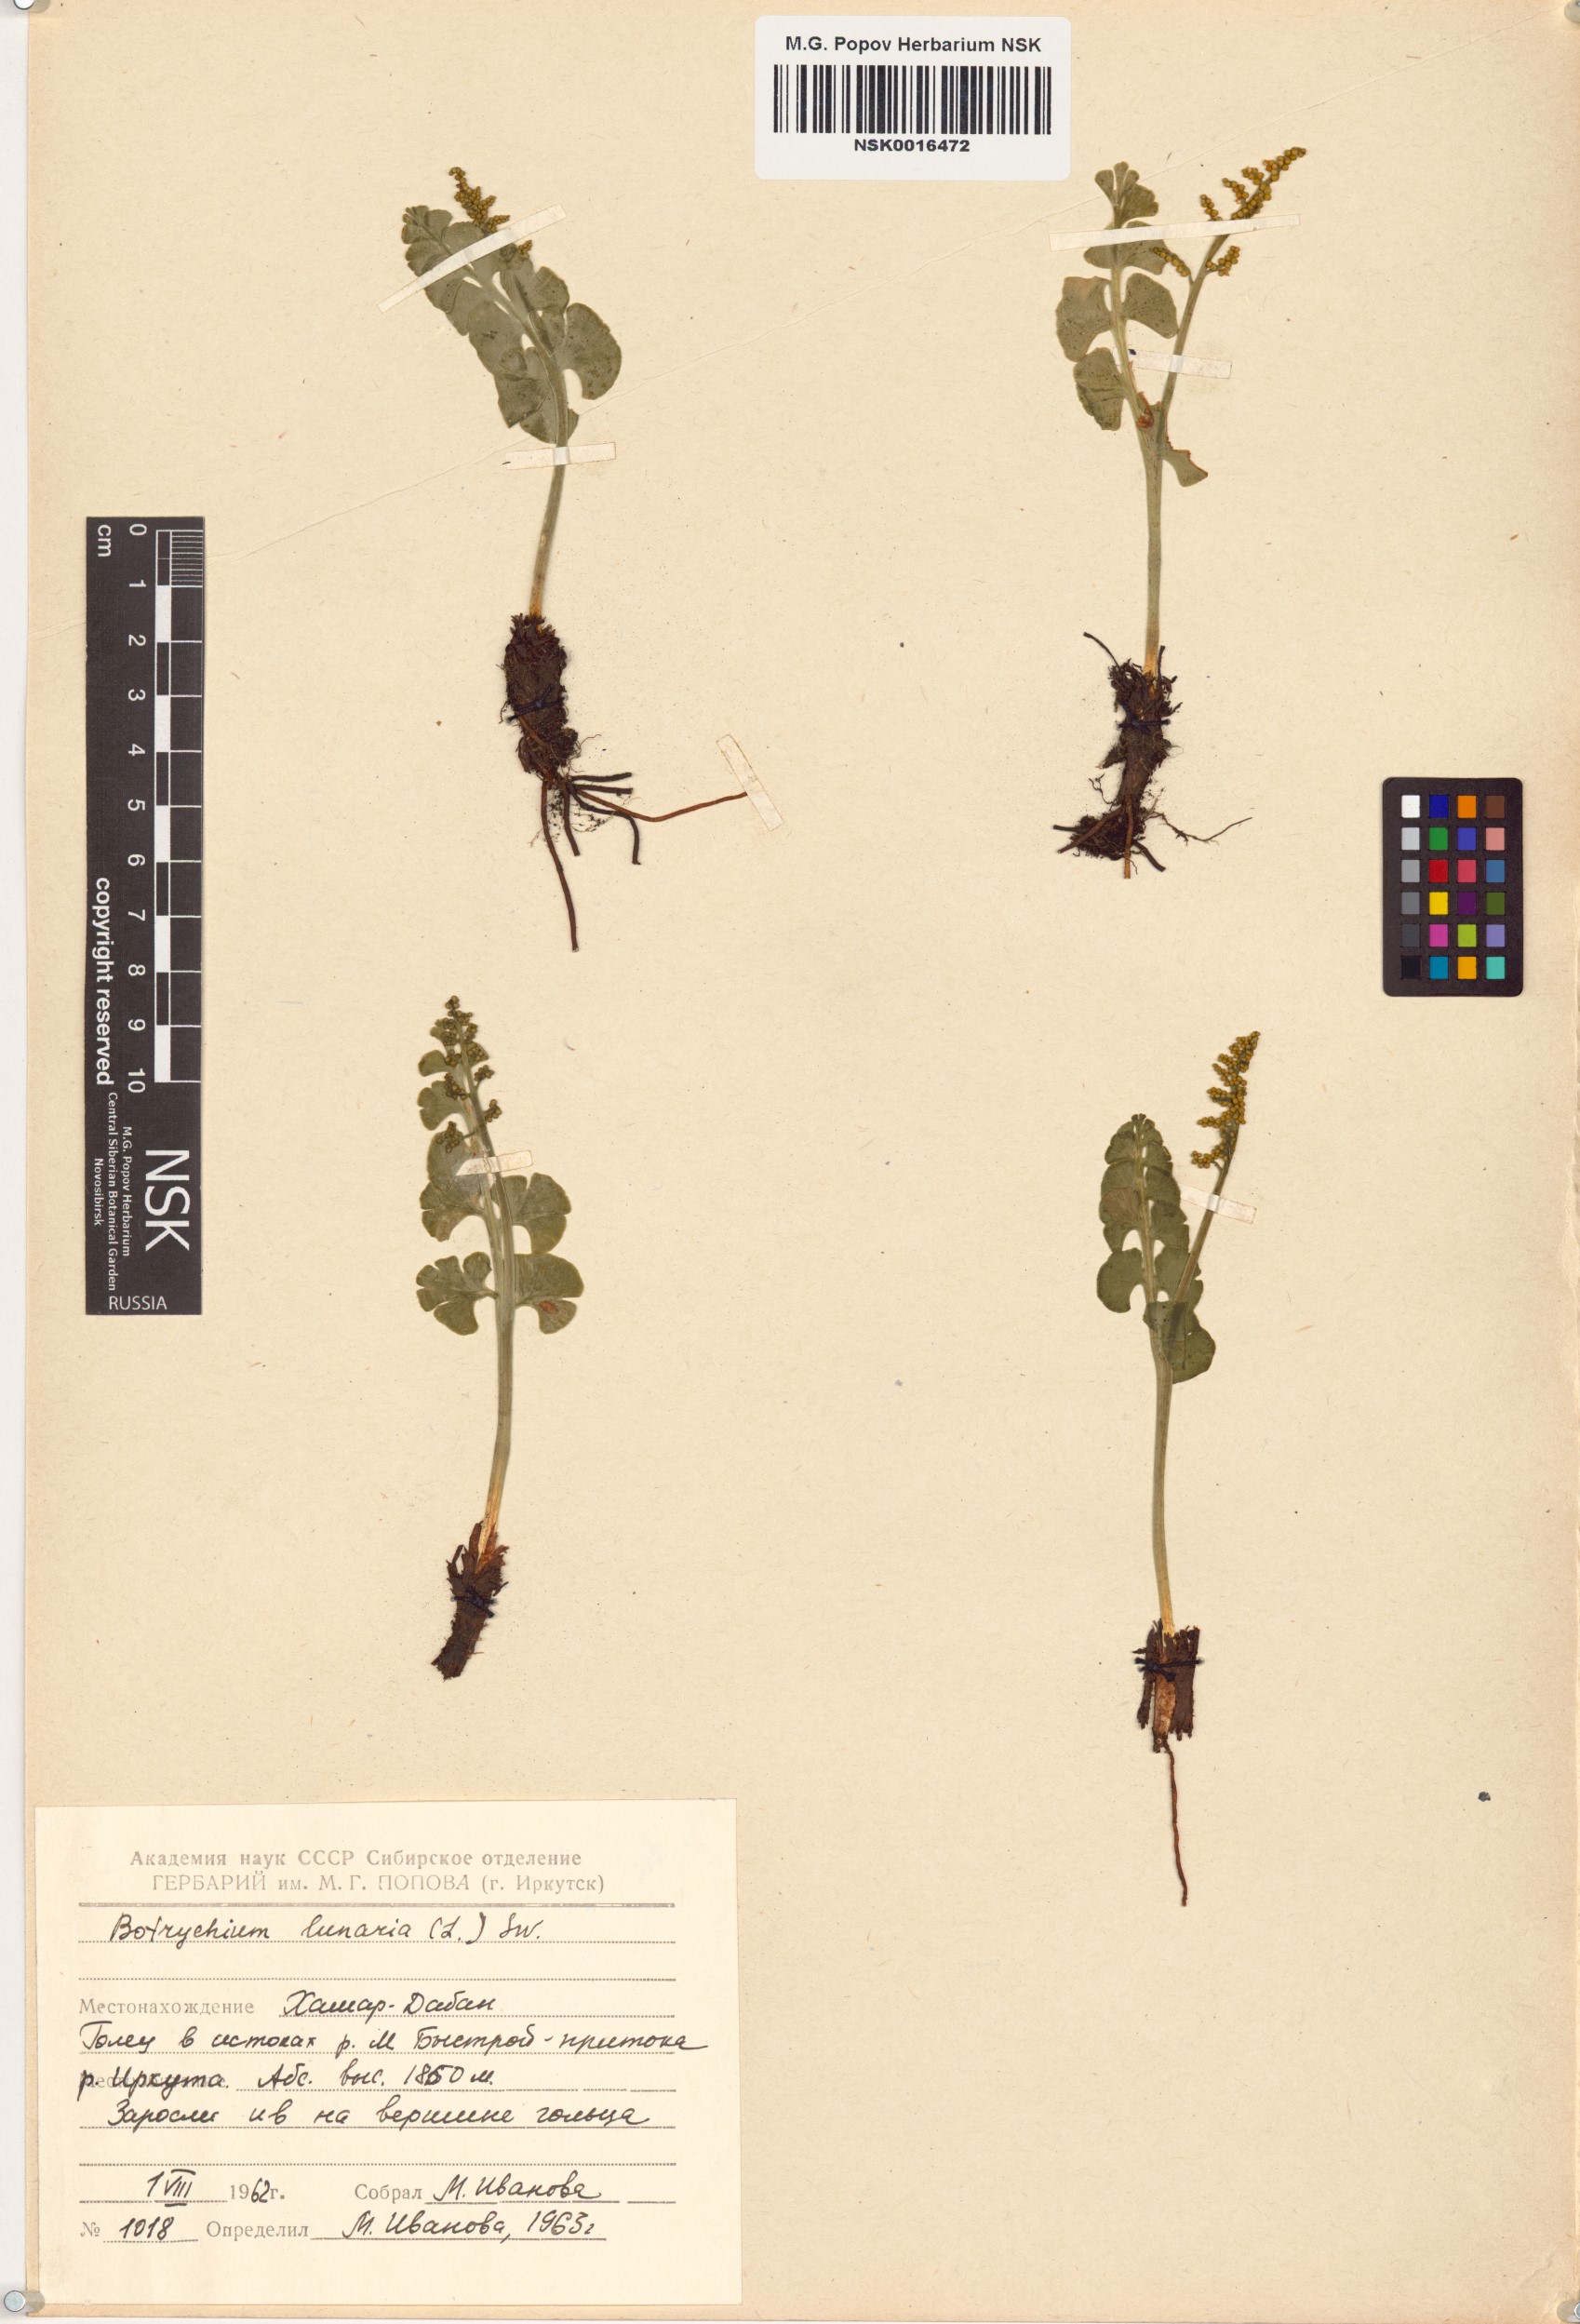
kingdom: Plantae
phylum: Tracheophyta
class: Polypodiopsida
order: Ophioglossales
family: Ophioglossaceae
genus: Botrychium
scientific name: Botrychium lunaria
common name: Moonwort
